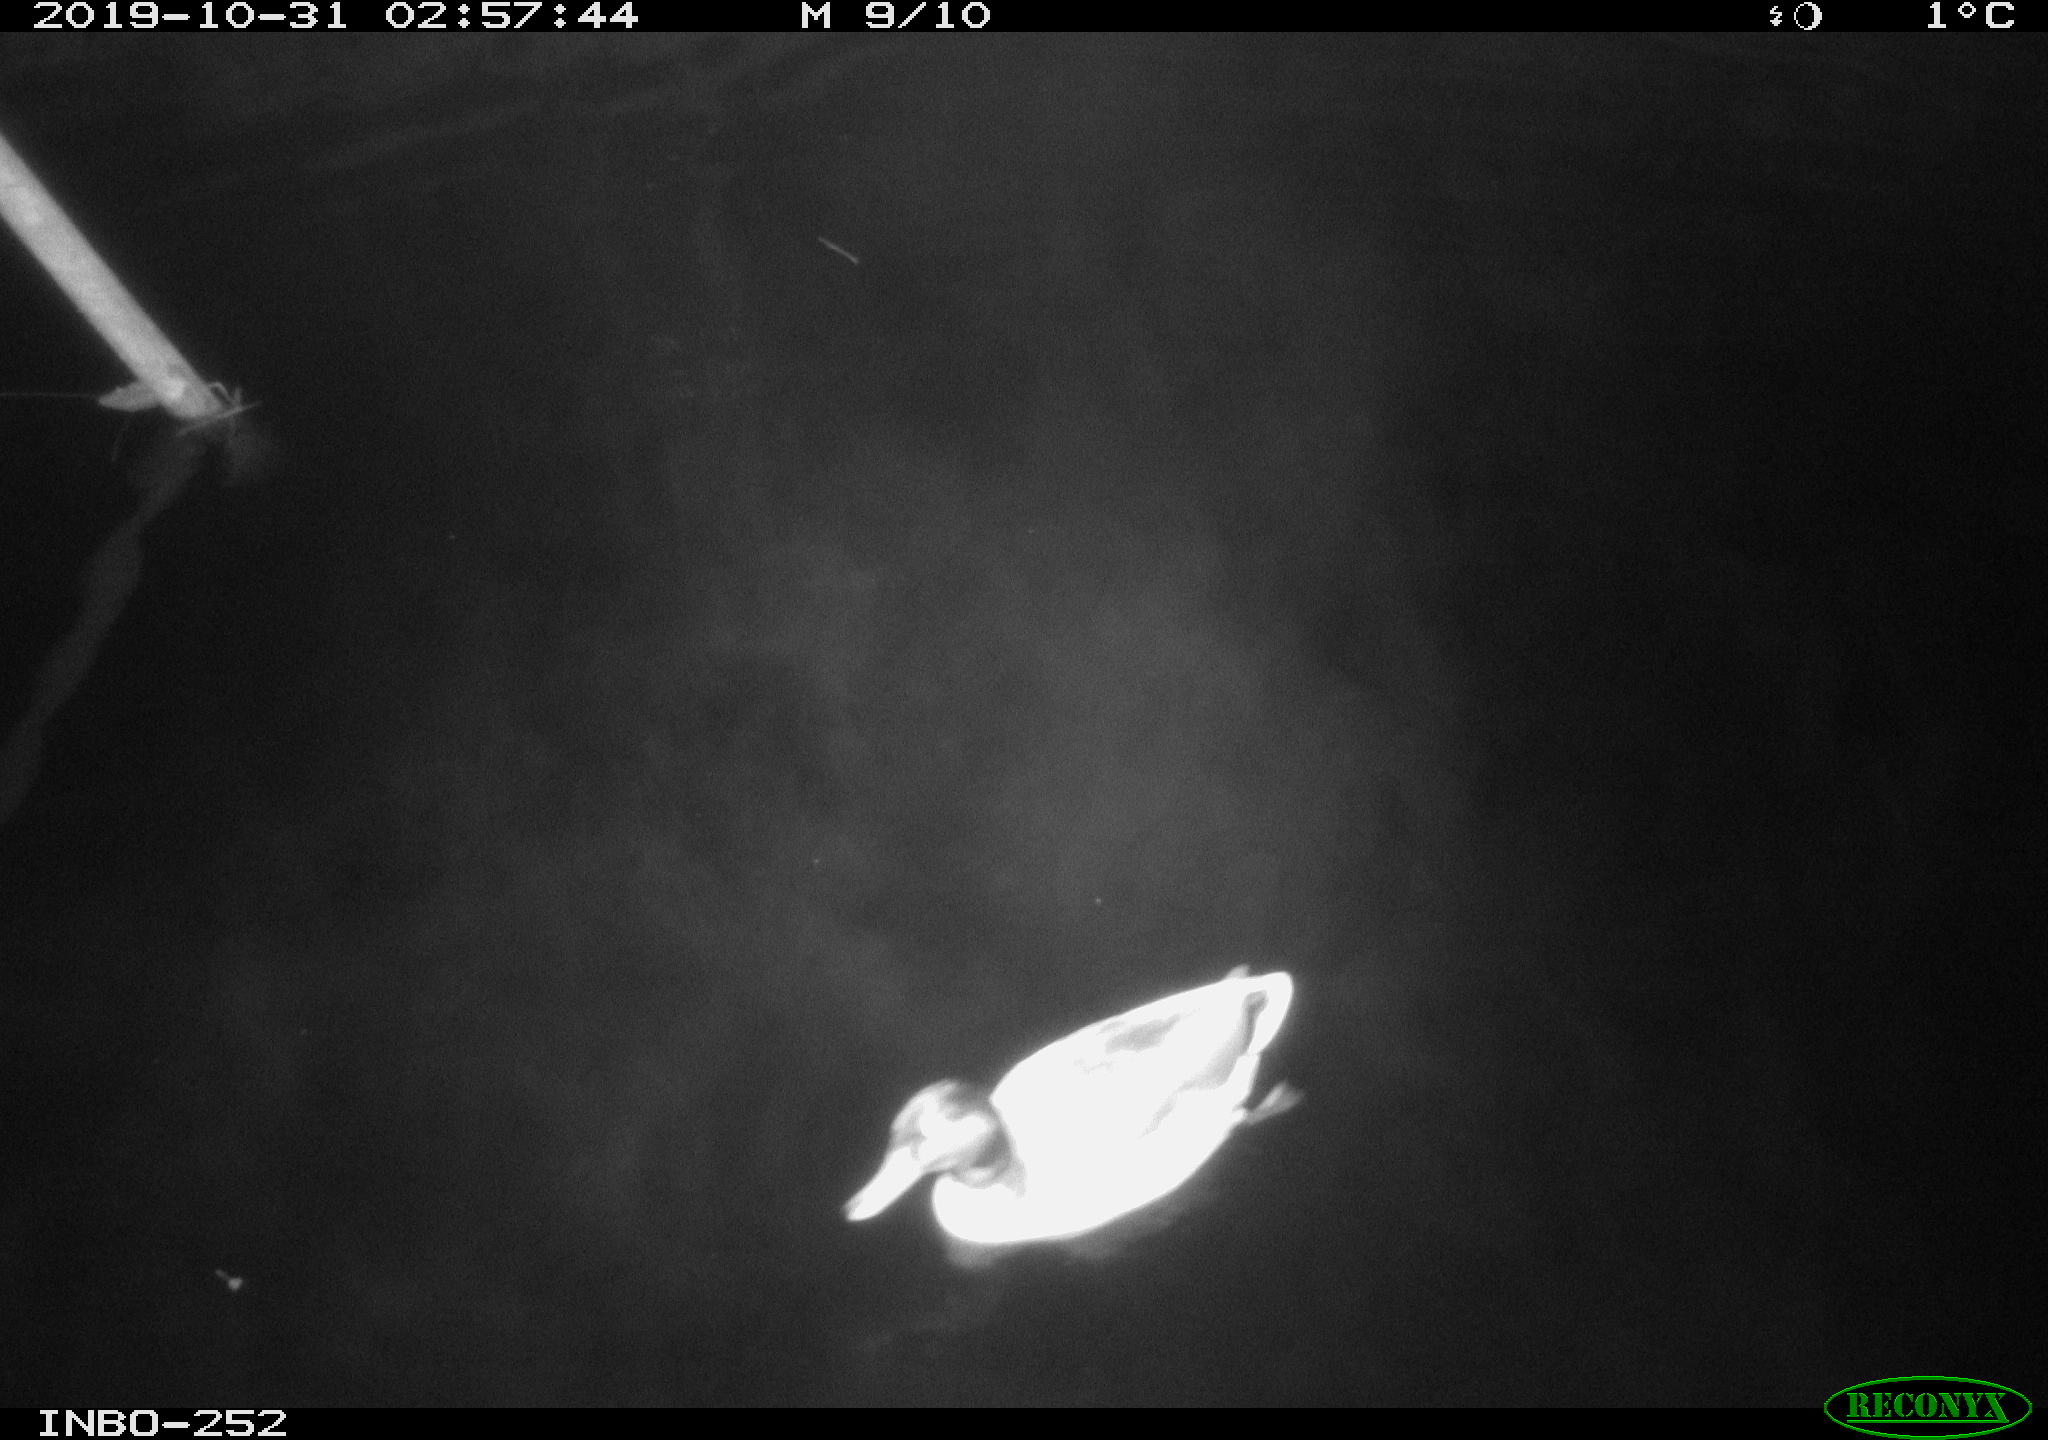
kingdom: Animalia
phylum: Chordata
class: Aves
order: Anseriformes
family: Anatidae
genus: Anas
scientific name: Anas platyrhynchos
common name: Mallard
